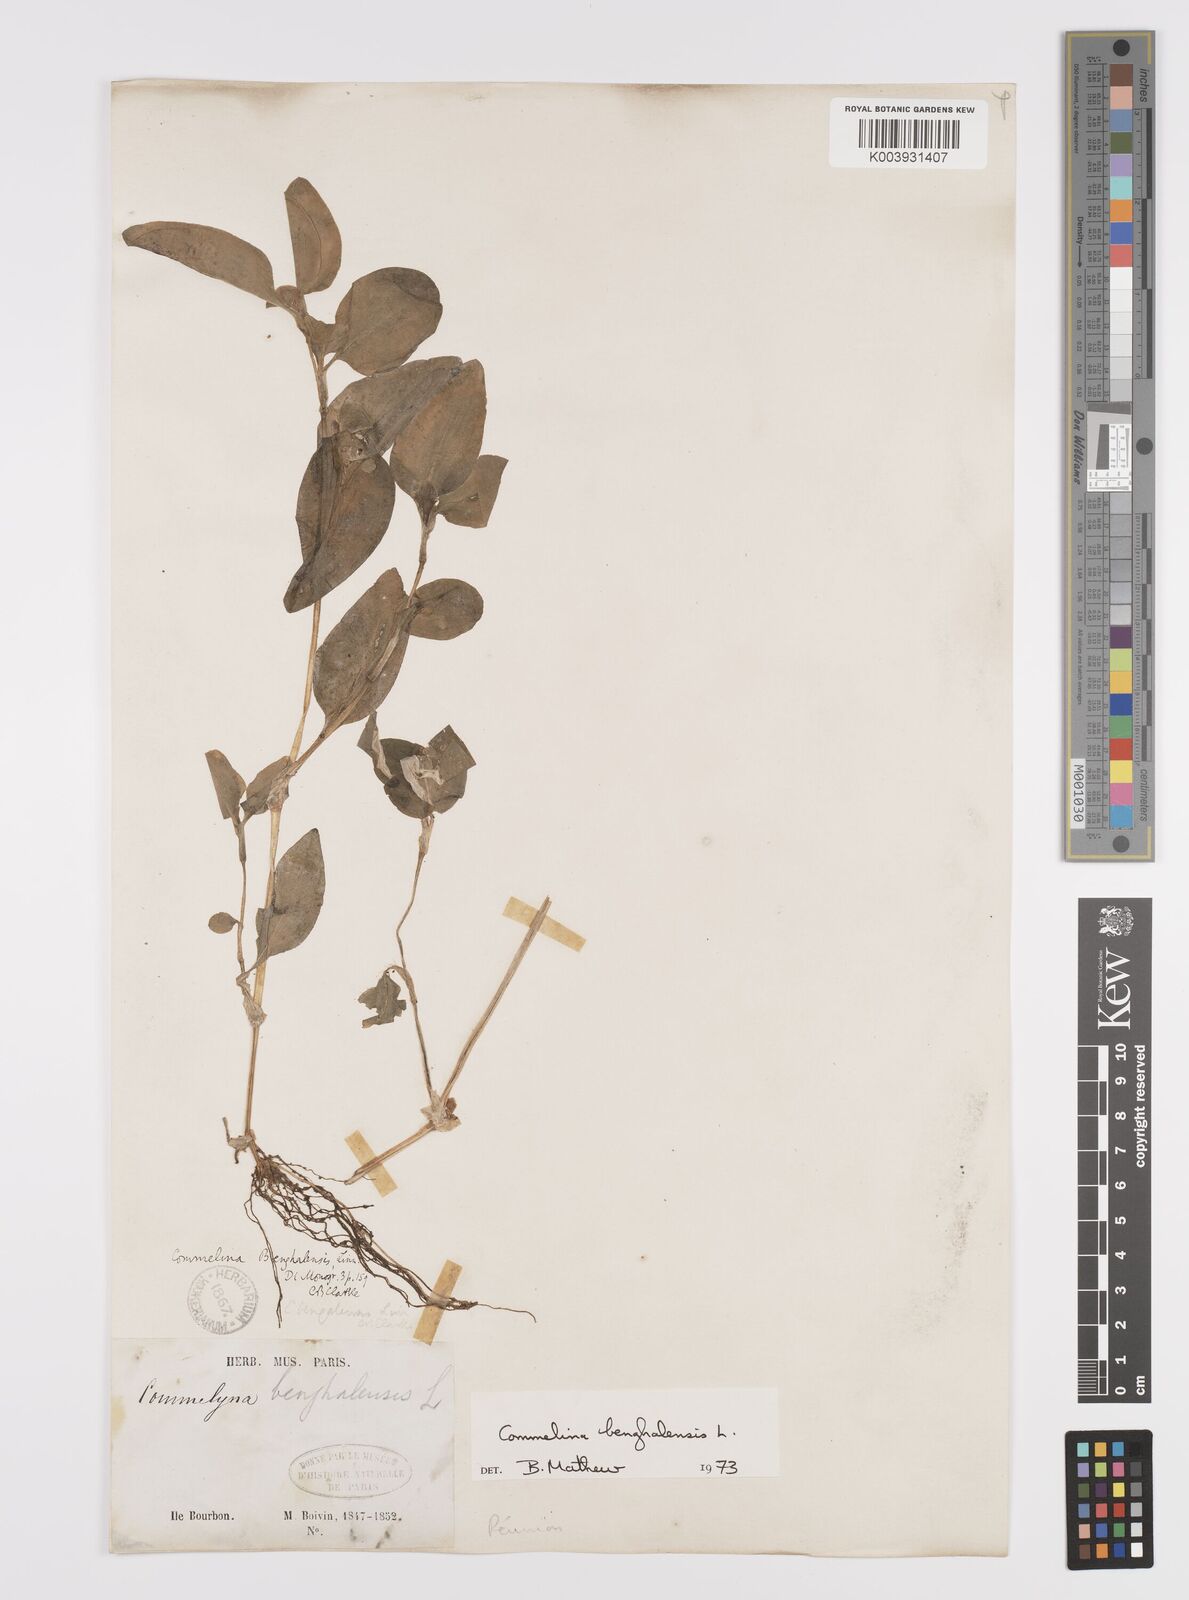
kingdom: Plantae
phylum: Tracheophyta
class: Liliopsida
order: Commelinales
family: Commelinaceae
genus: Commelina
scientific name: Commelina benghalensis
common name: Jio
